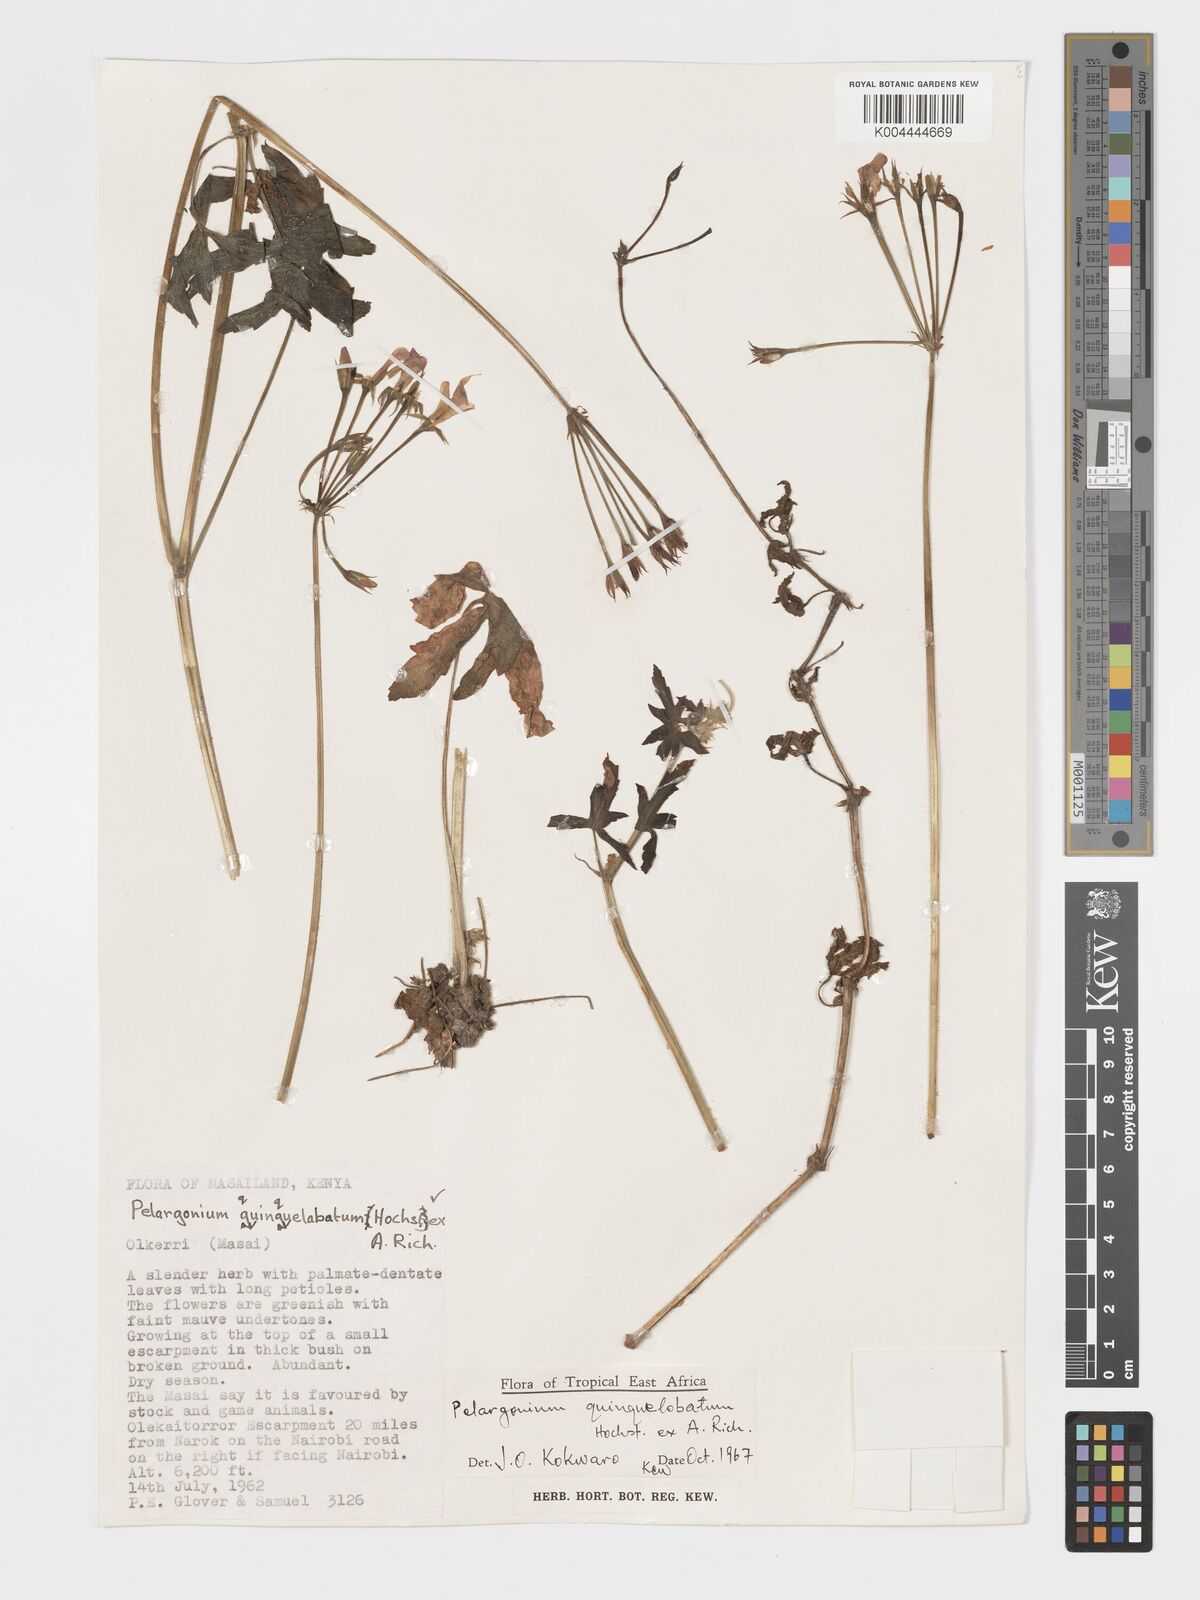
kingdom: Plantae
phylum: Tracheophyta
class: Magnoliopsida
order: Geraniales
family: Geraniaceae
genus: Pelargonium
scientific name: Pelargonium quinquelobatum
